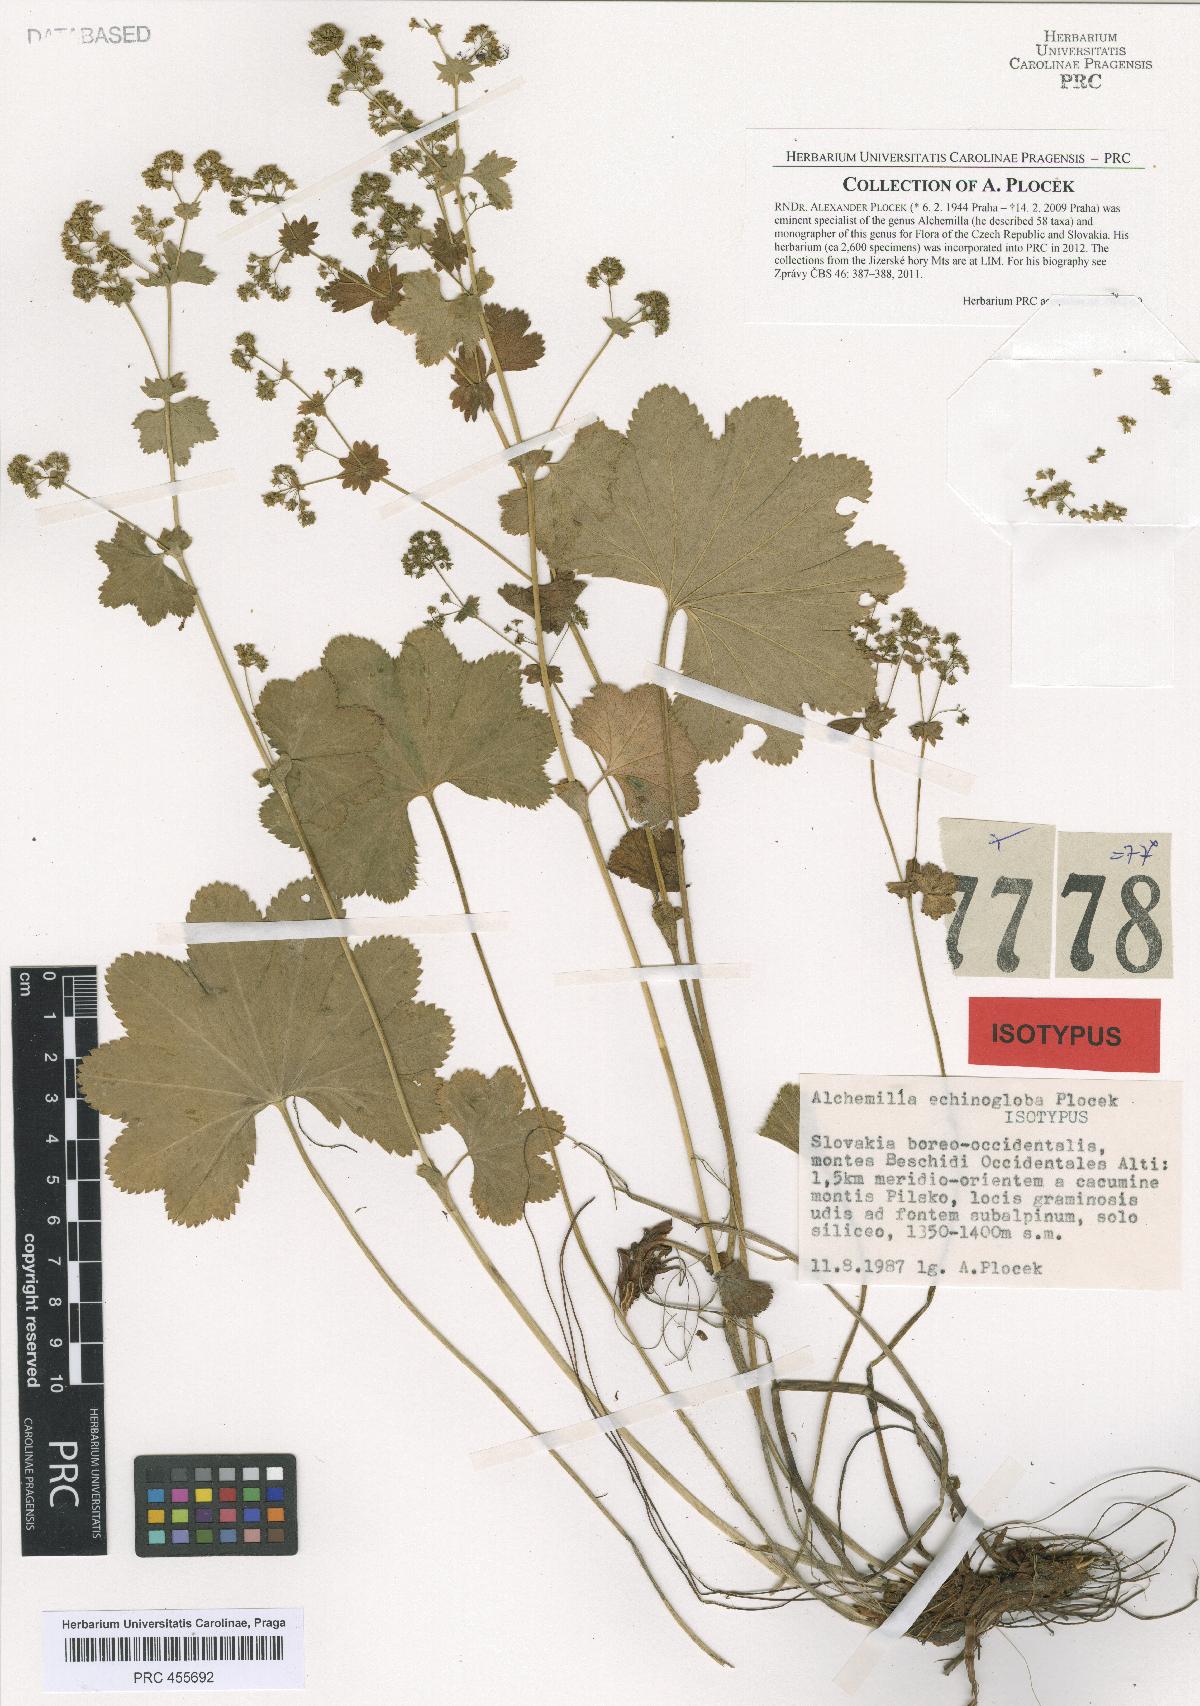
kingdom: Plantae
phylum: Tracheophyta
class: Magnoliopsida
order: Rosales
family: Rosaceae
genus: Alchemilla
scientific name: Alchemilla echinogloba
